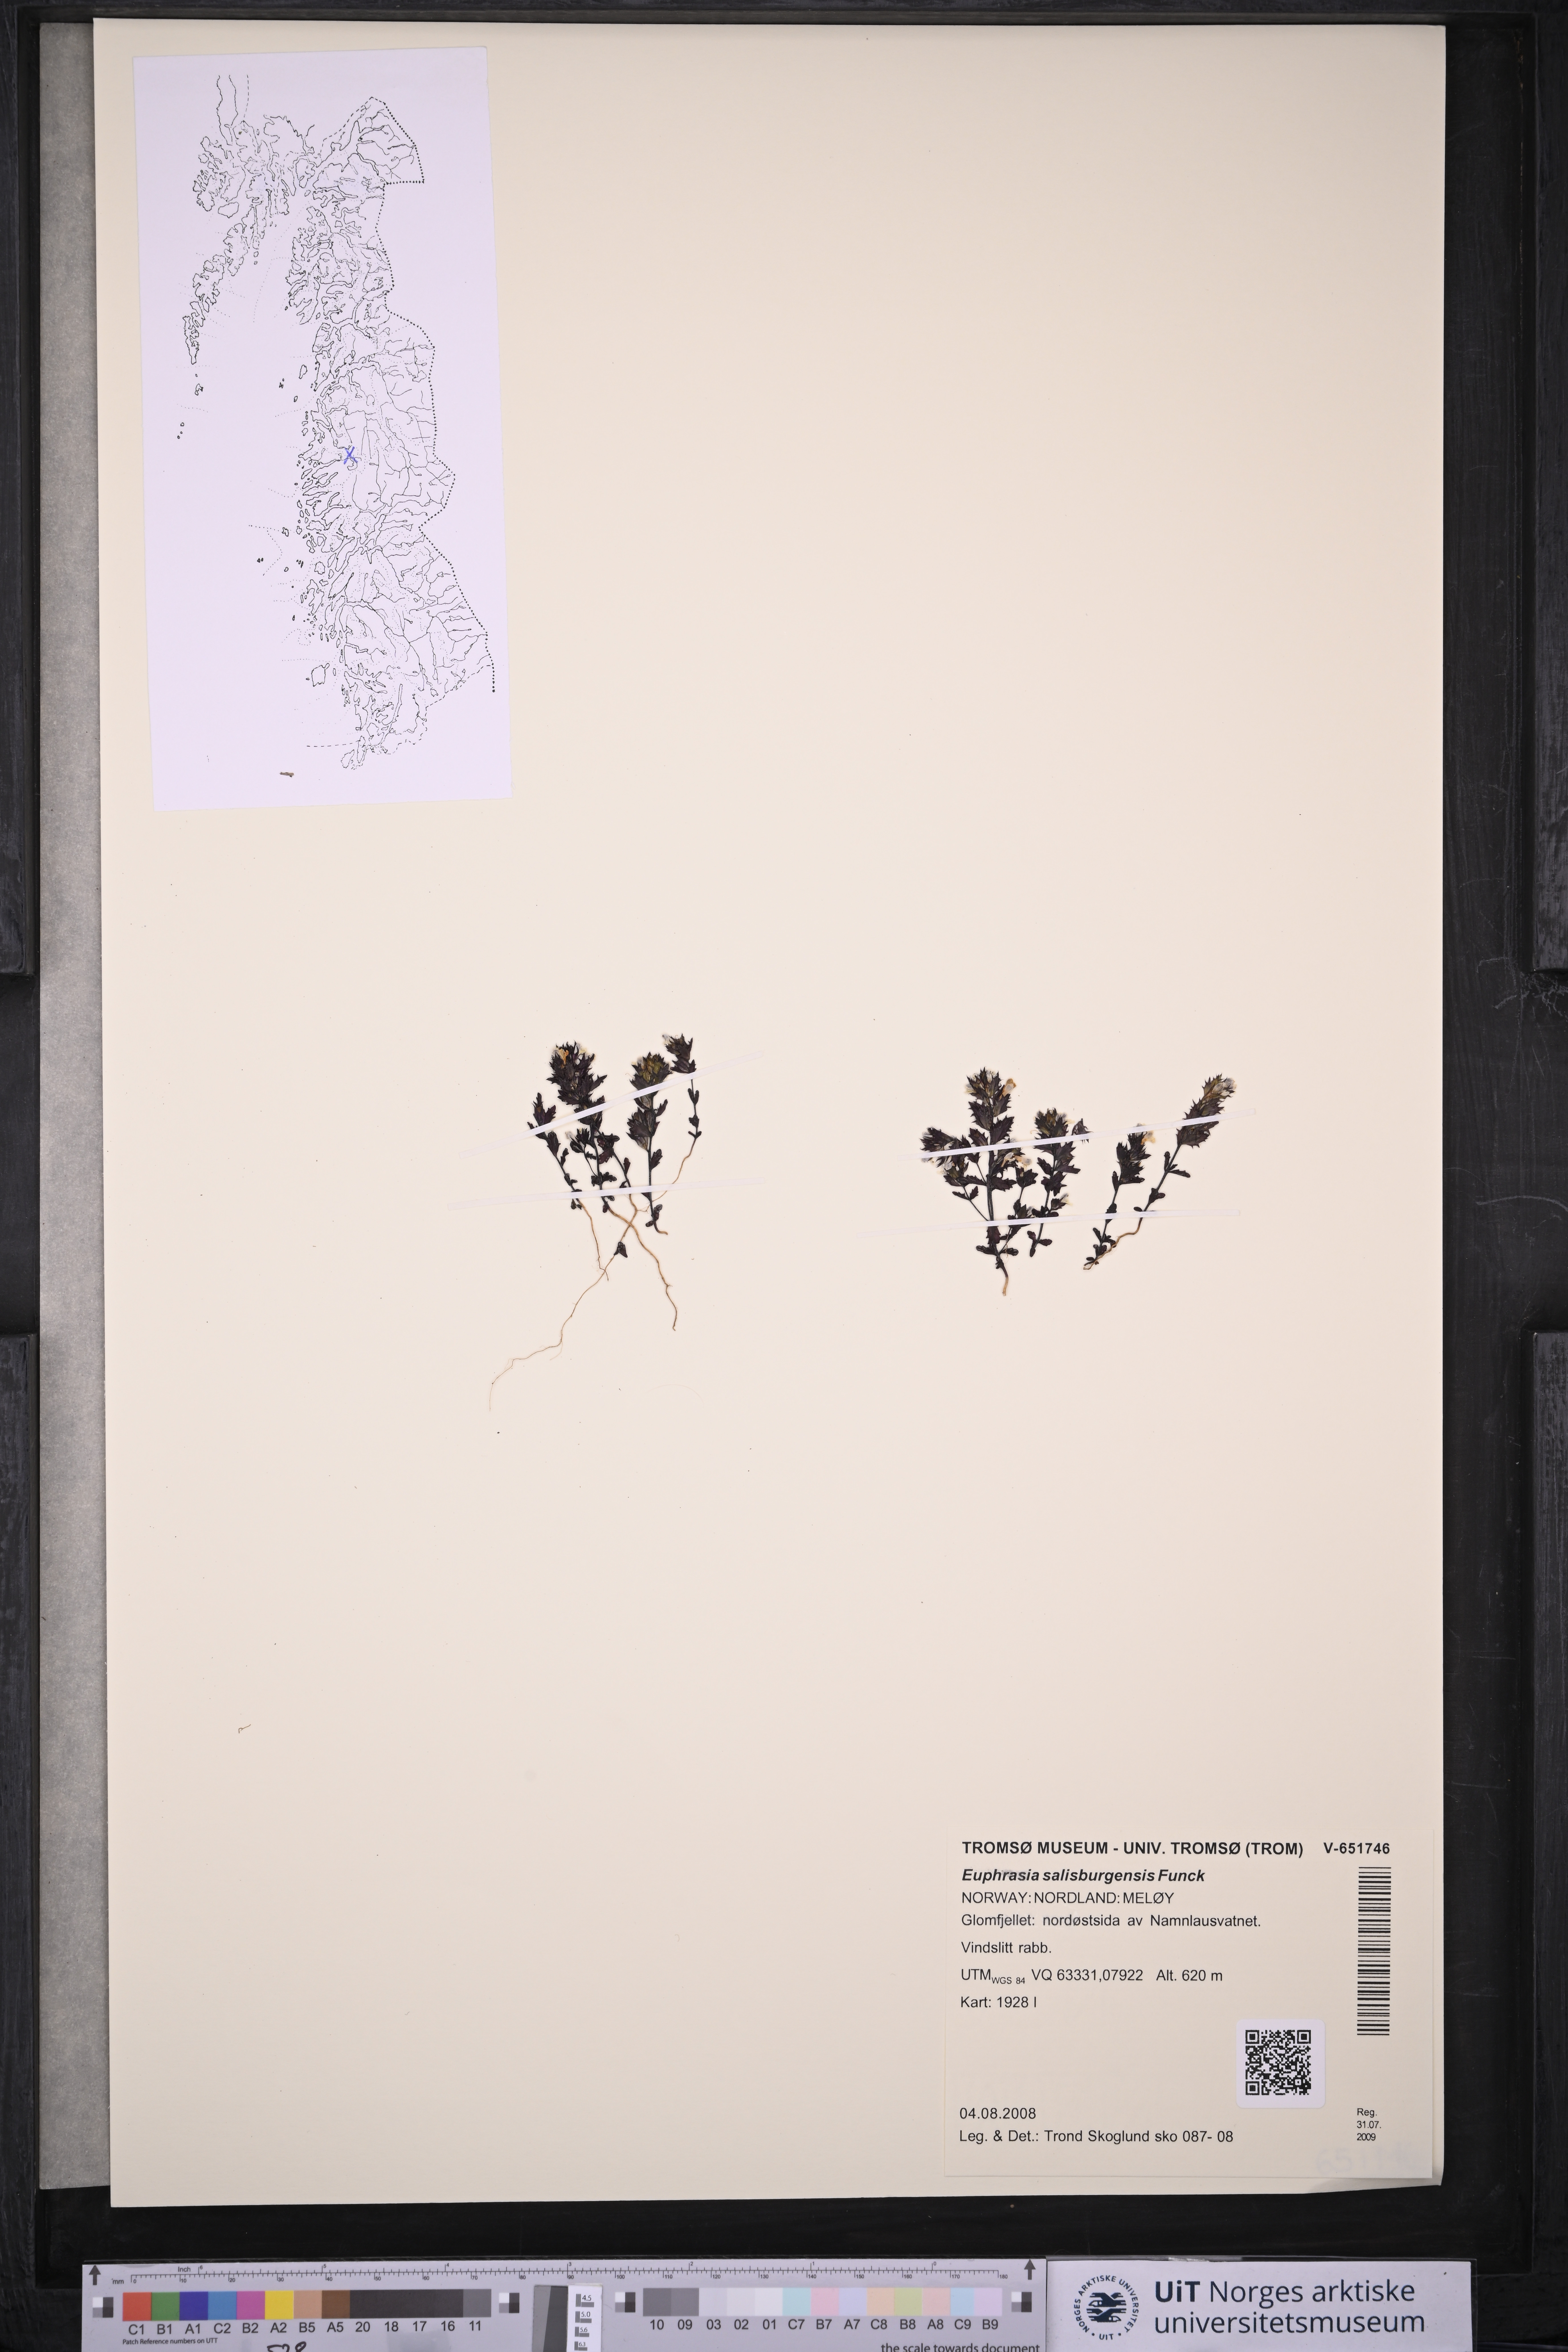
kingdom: Plantae
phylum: Tracheophyta
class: Magnoliopsida
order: Lamiales
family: Orobanchaceae
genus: Euphrasia
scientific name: Euphrasia salisburgensis
